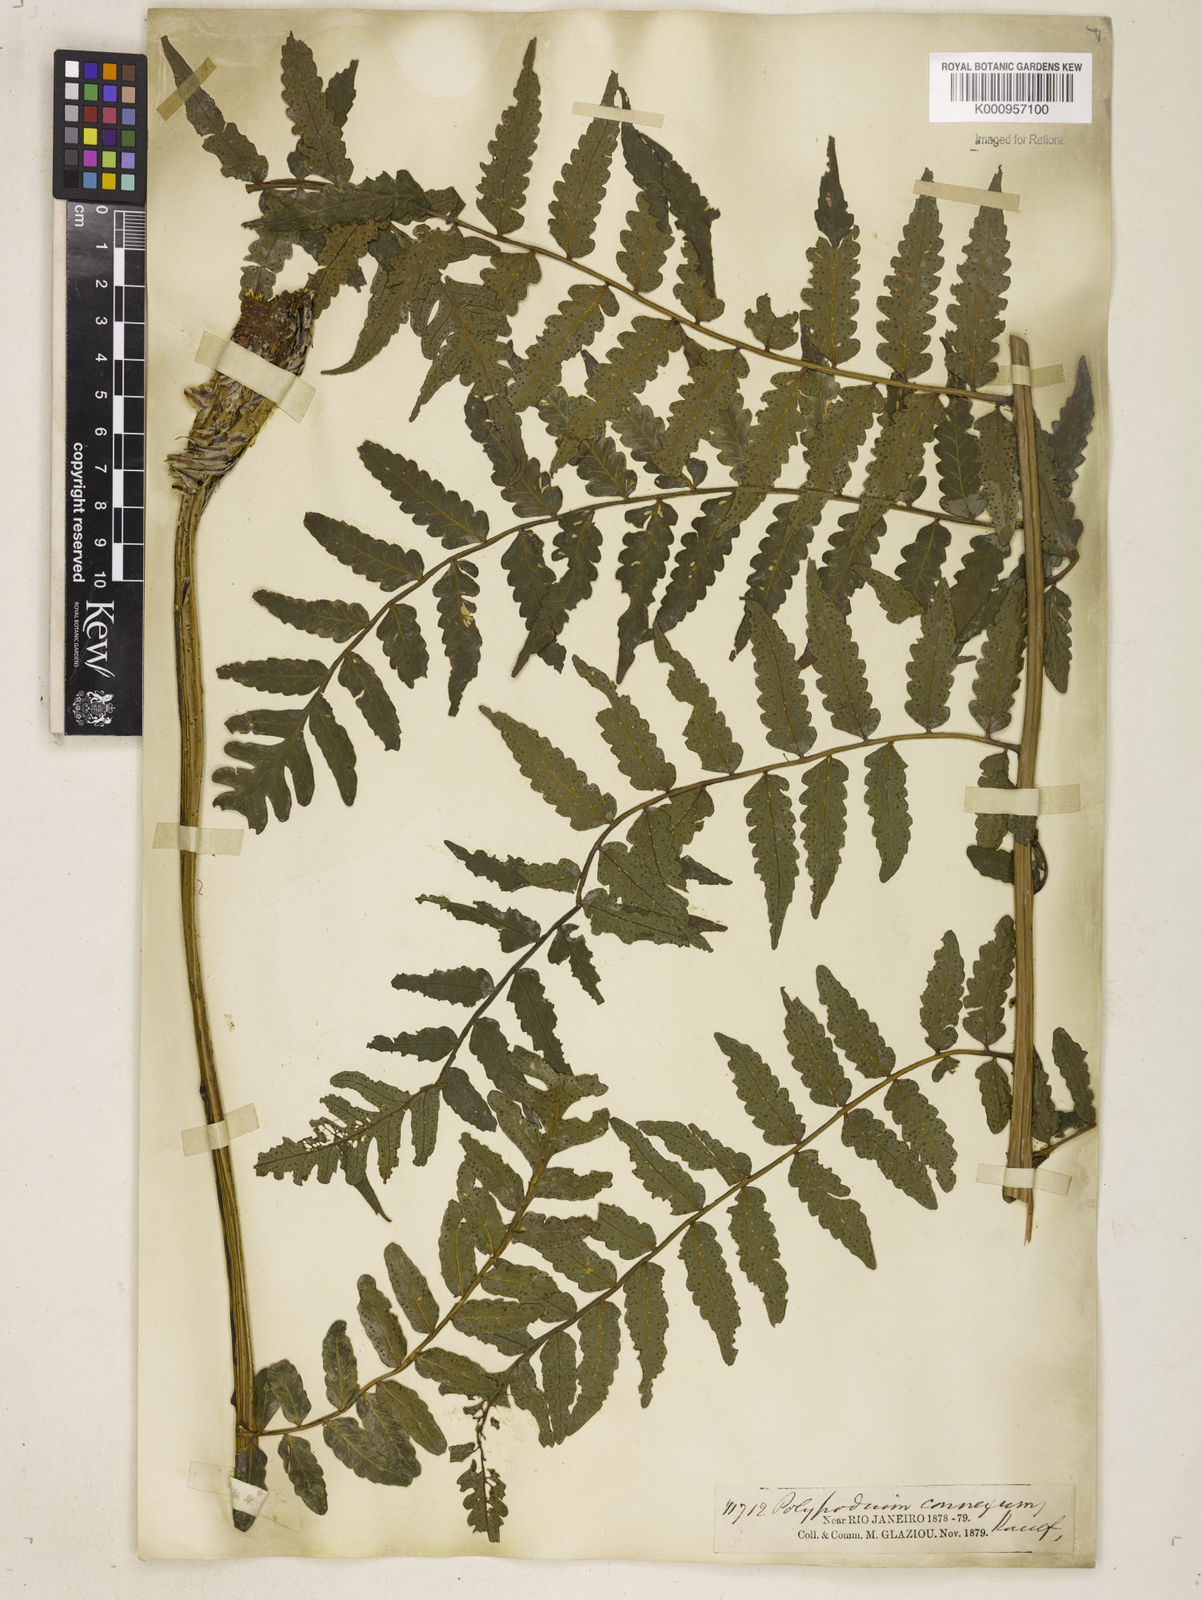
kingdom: Plantae
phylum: Tracheophyta
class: Polypodiopsida
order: Polypodiales
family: Dryopteridaceae
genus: Megalastrum
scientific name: Megalastrum connexum
